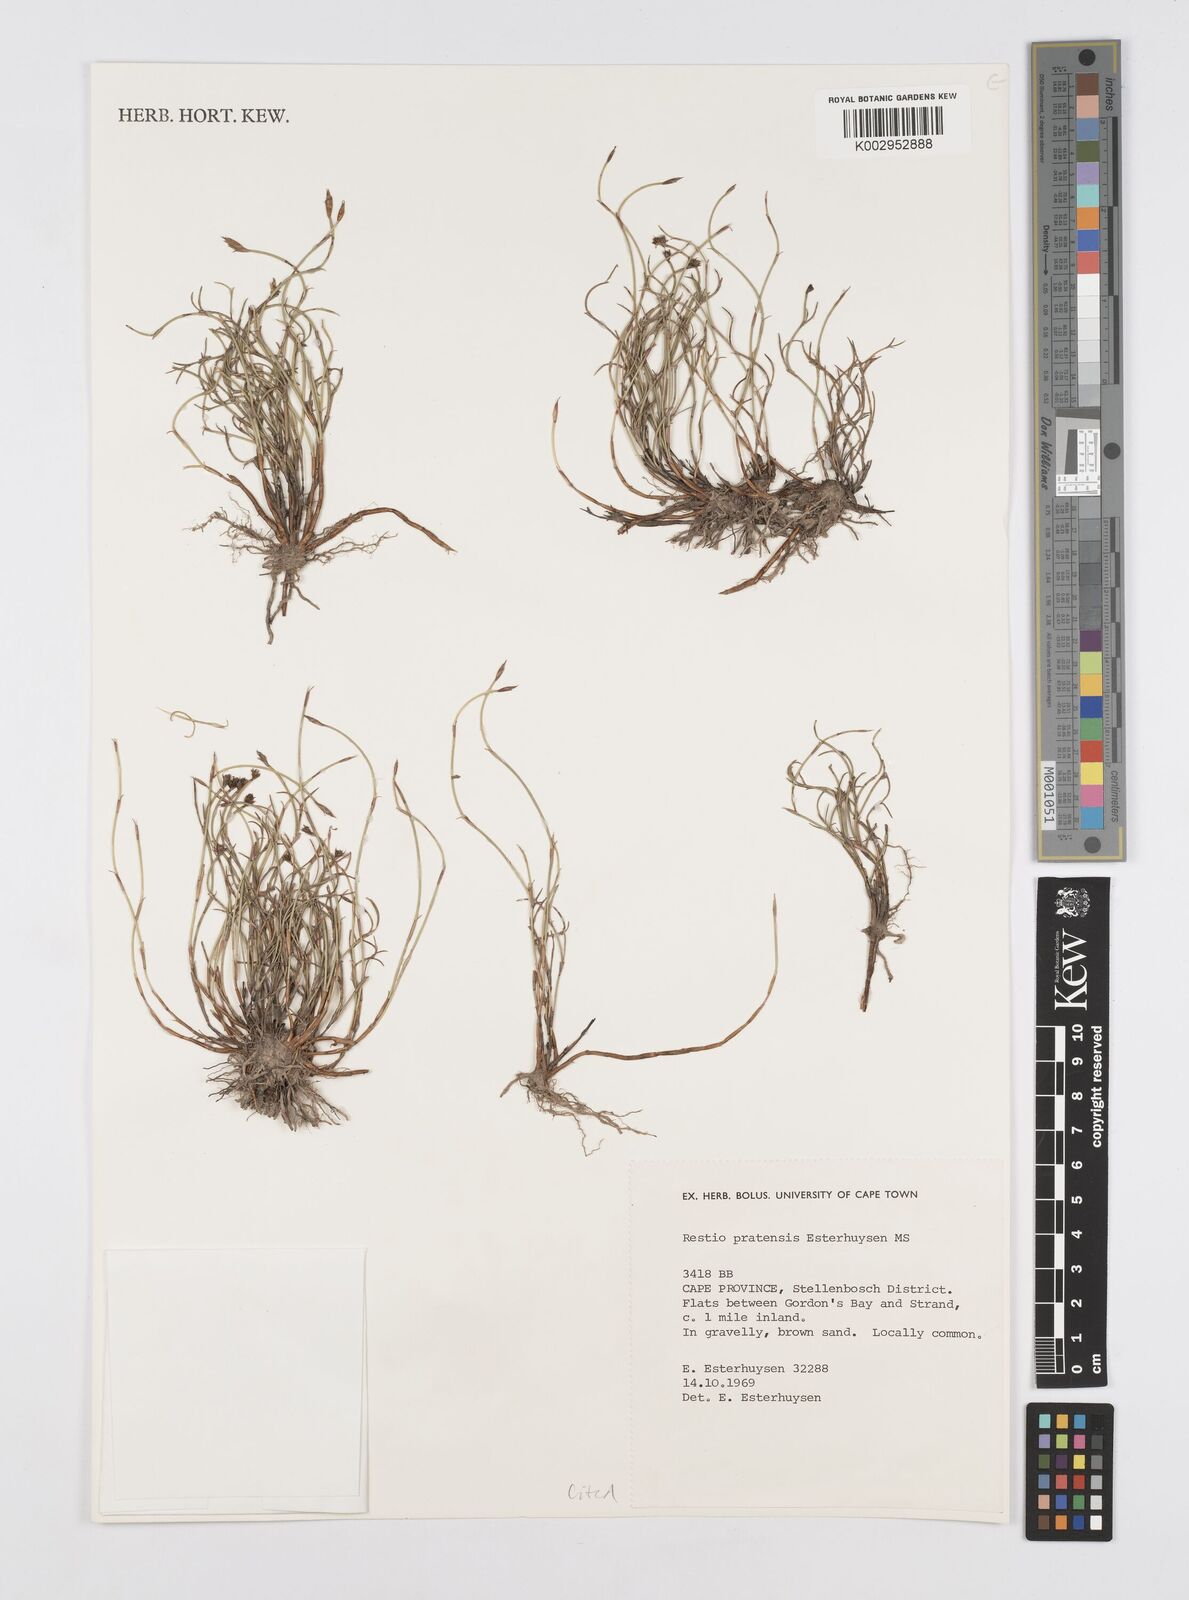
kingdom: Plantae
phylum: Tracheophyta
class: Liliopsida
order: Poales
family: Restionaceae
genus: Restio
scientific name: Restio pratensis
